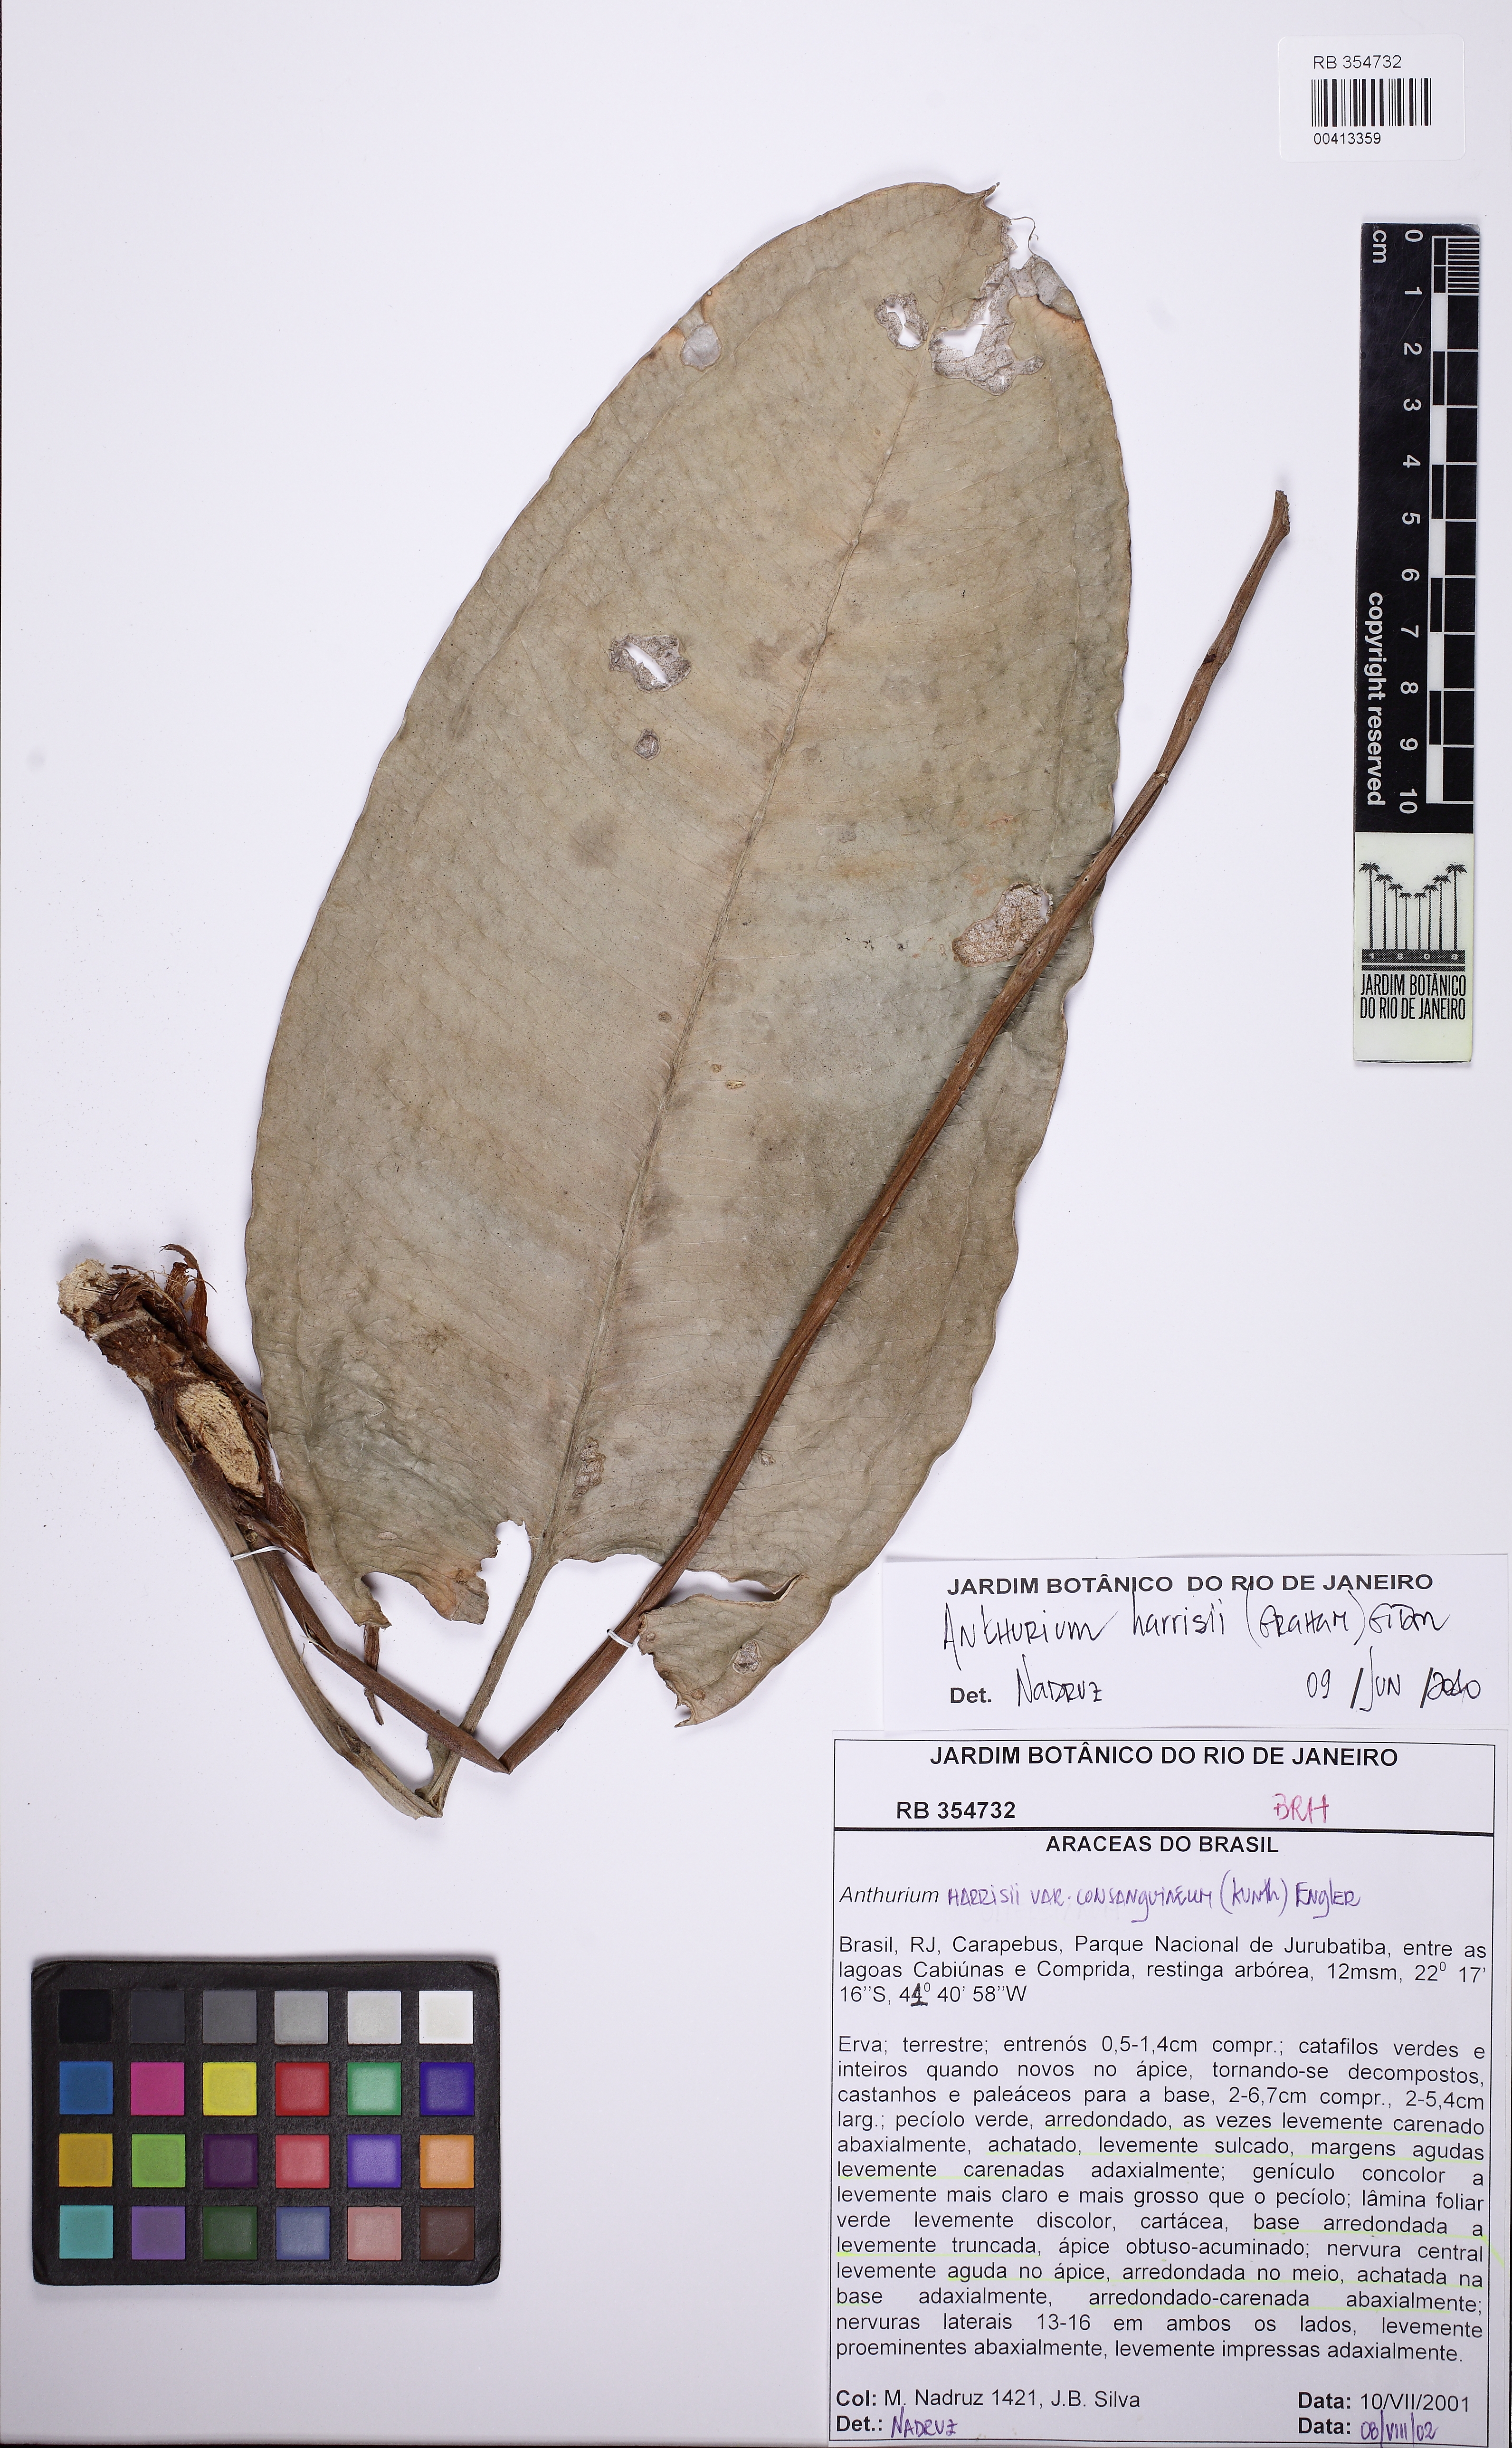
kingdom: Plantae
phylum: Tracheophyta
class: Liliopsida
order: Alismatales
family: Araceae
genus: Anthurium
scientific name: Anthurium harrisii
